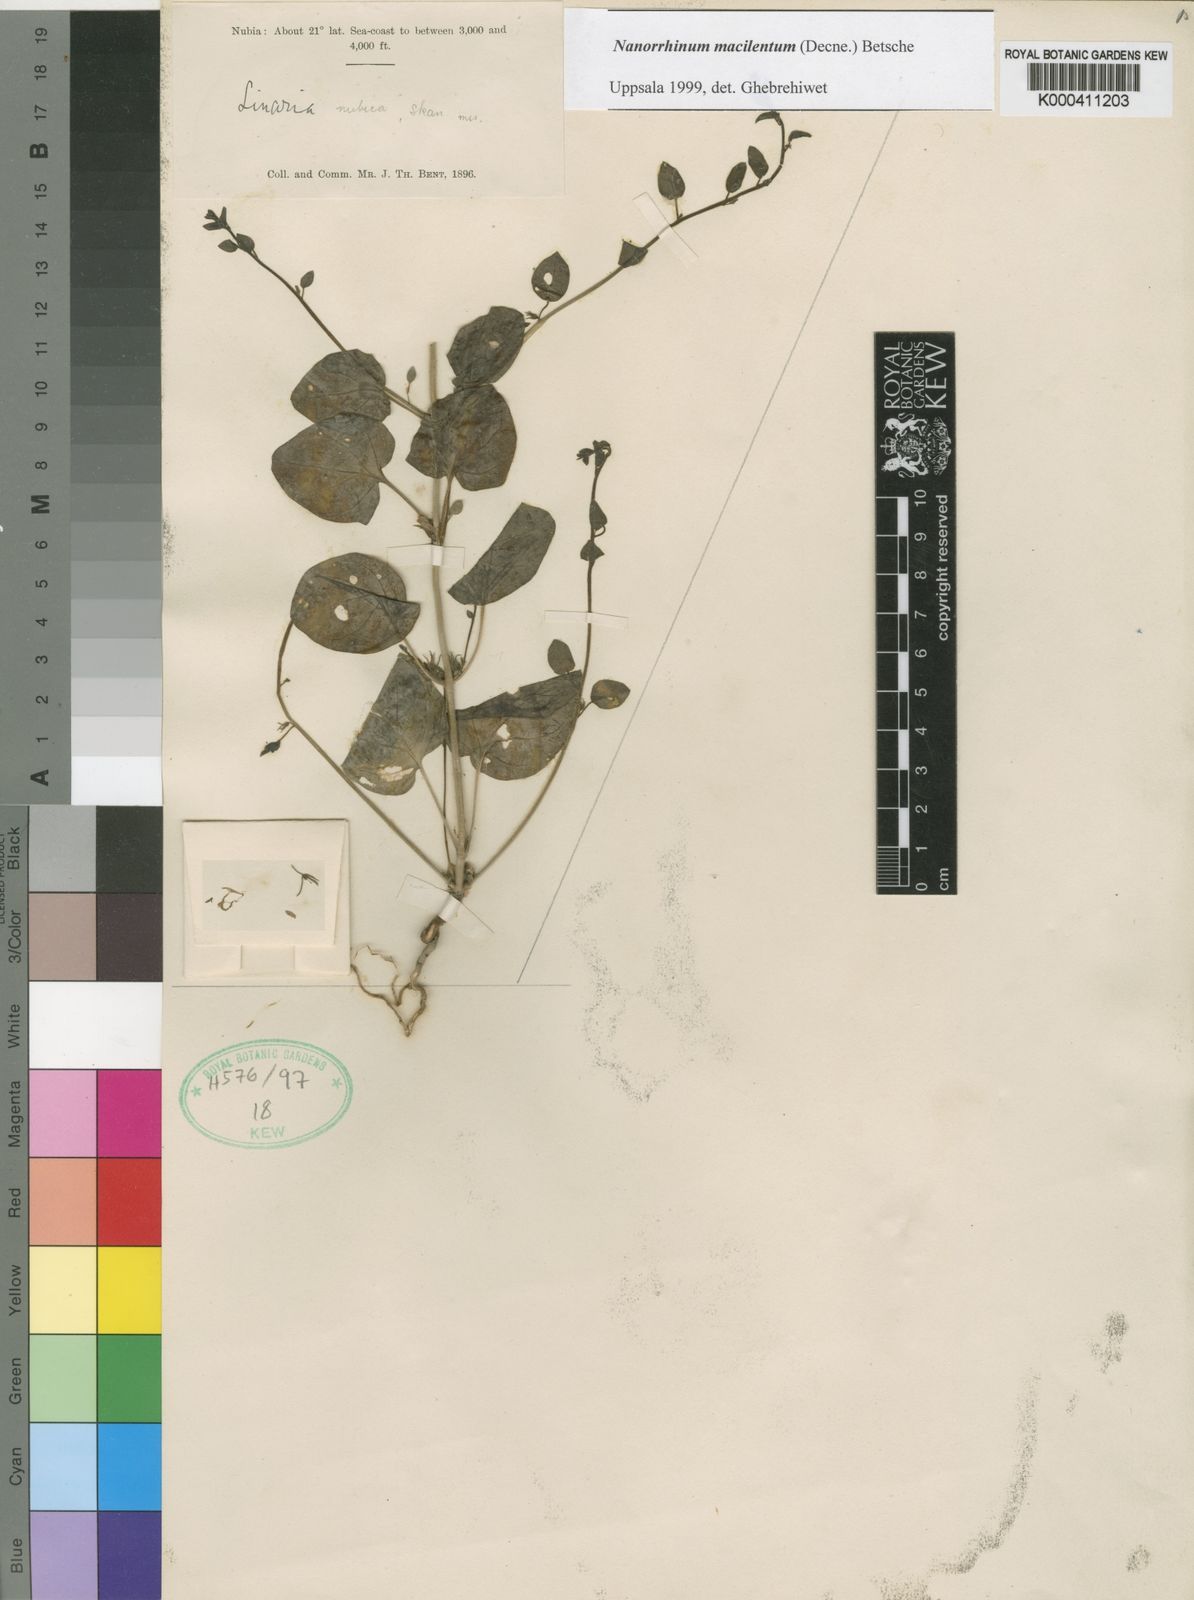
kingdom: Plantae
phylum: Tracheophyta
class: Magnoliopsida
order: Lamiales
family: Plantaginaceae
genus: Nanorrhinum
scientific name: Nanorrhinum macilentum
